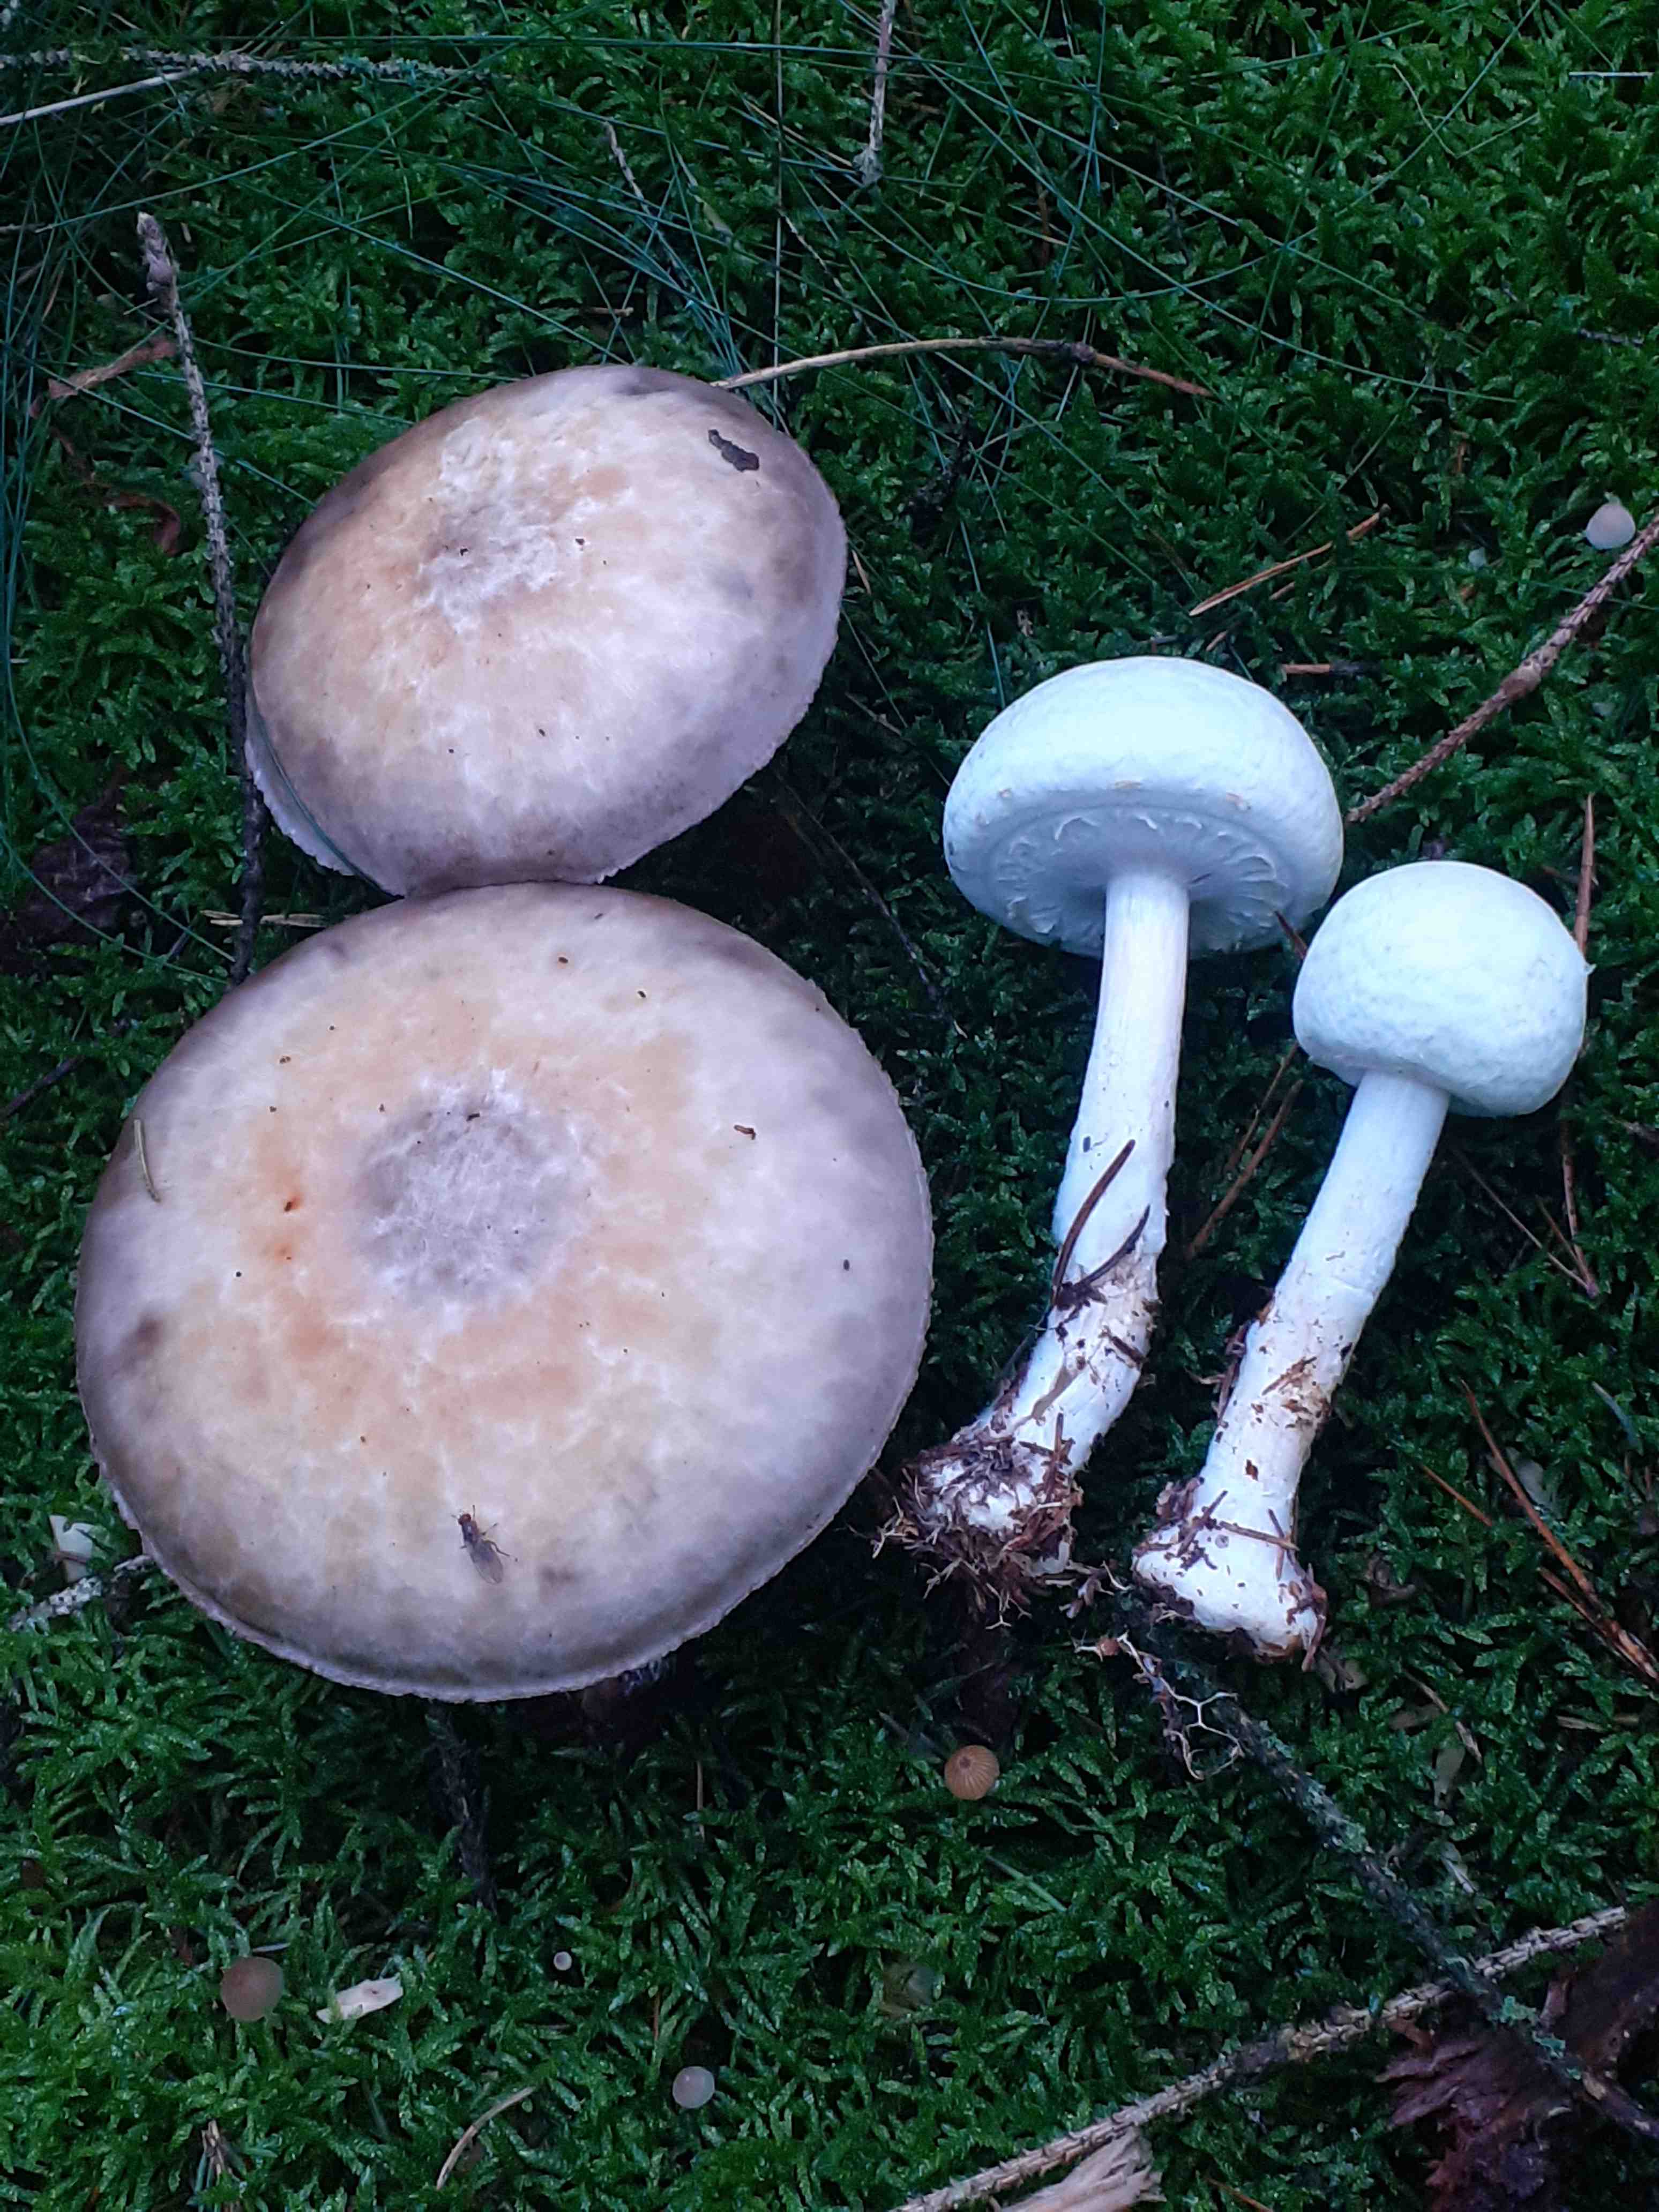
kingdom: Fungi
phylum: Basidiomycota
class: Agaricomycetes
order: Agaricales
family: Agaricaceae
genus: Agaricus
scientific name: Agaricus sylvicola
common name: skiveknoldet champignon
